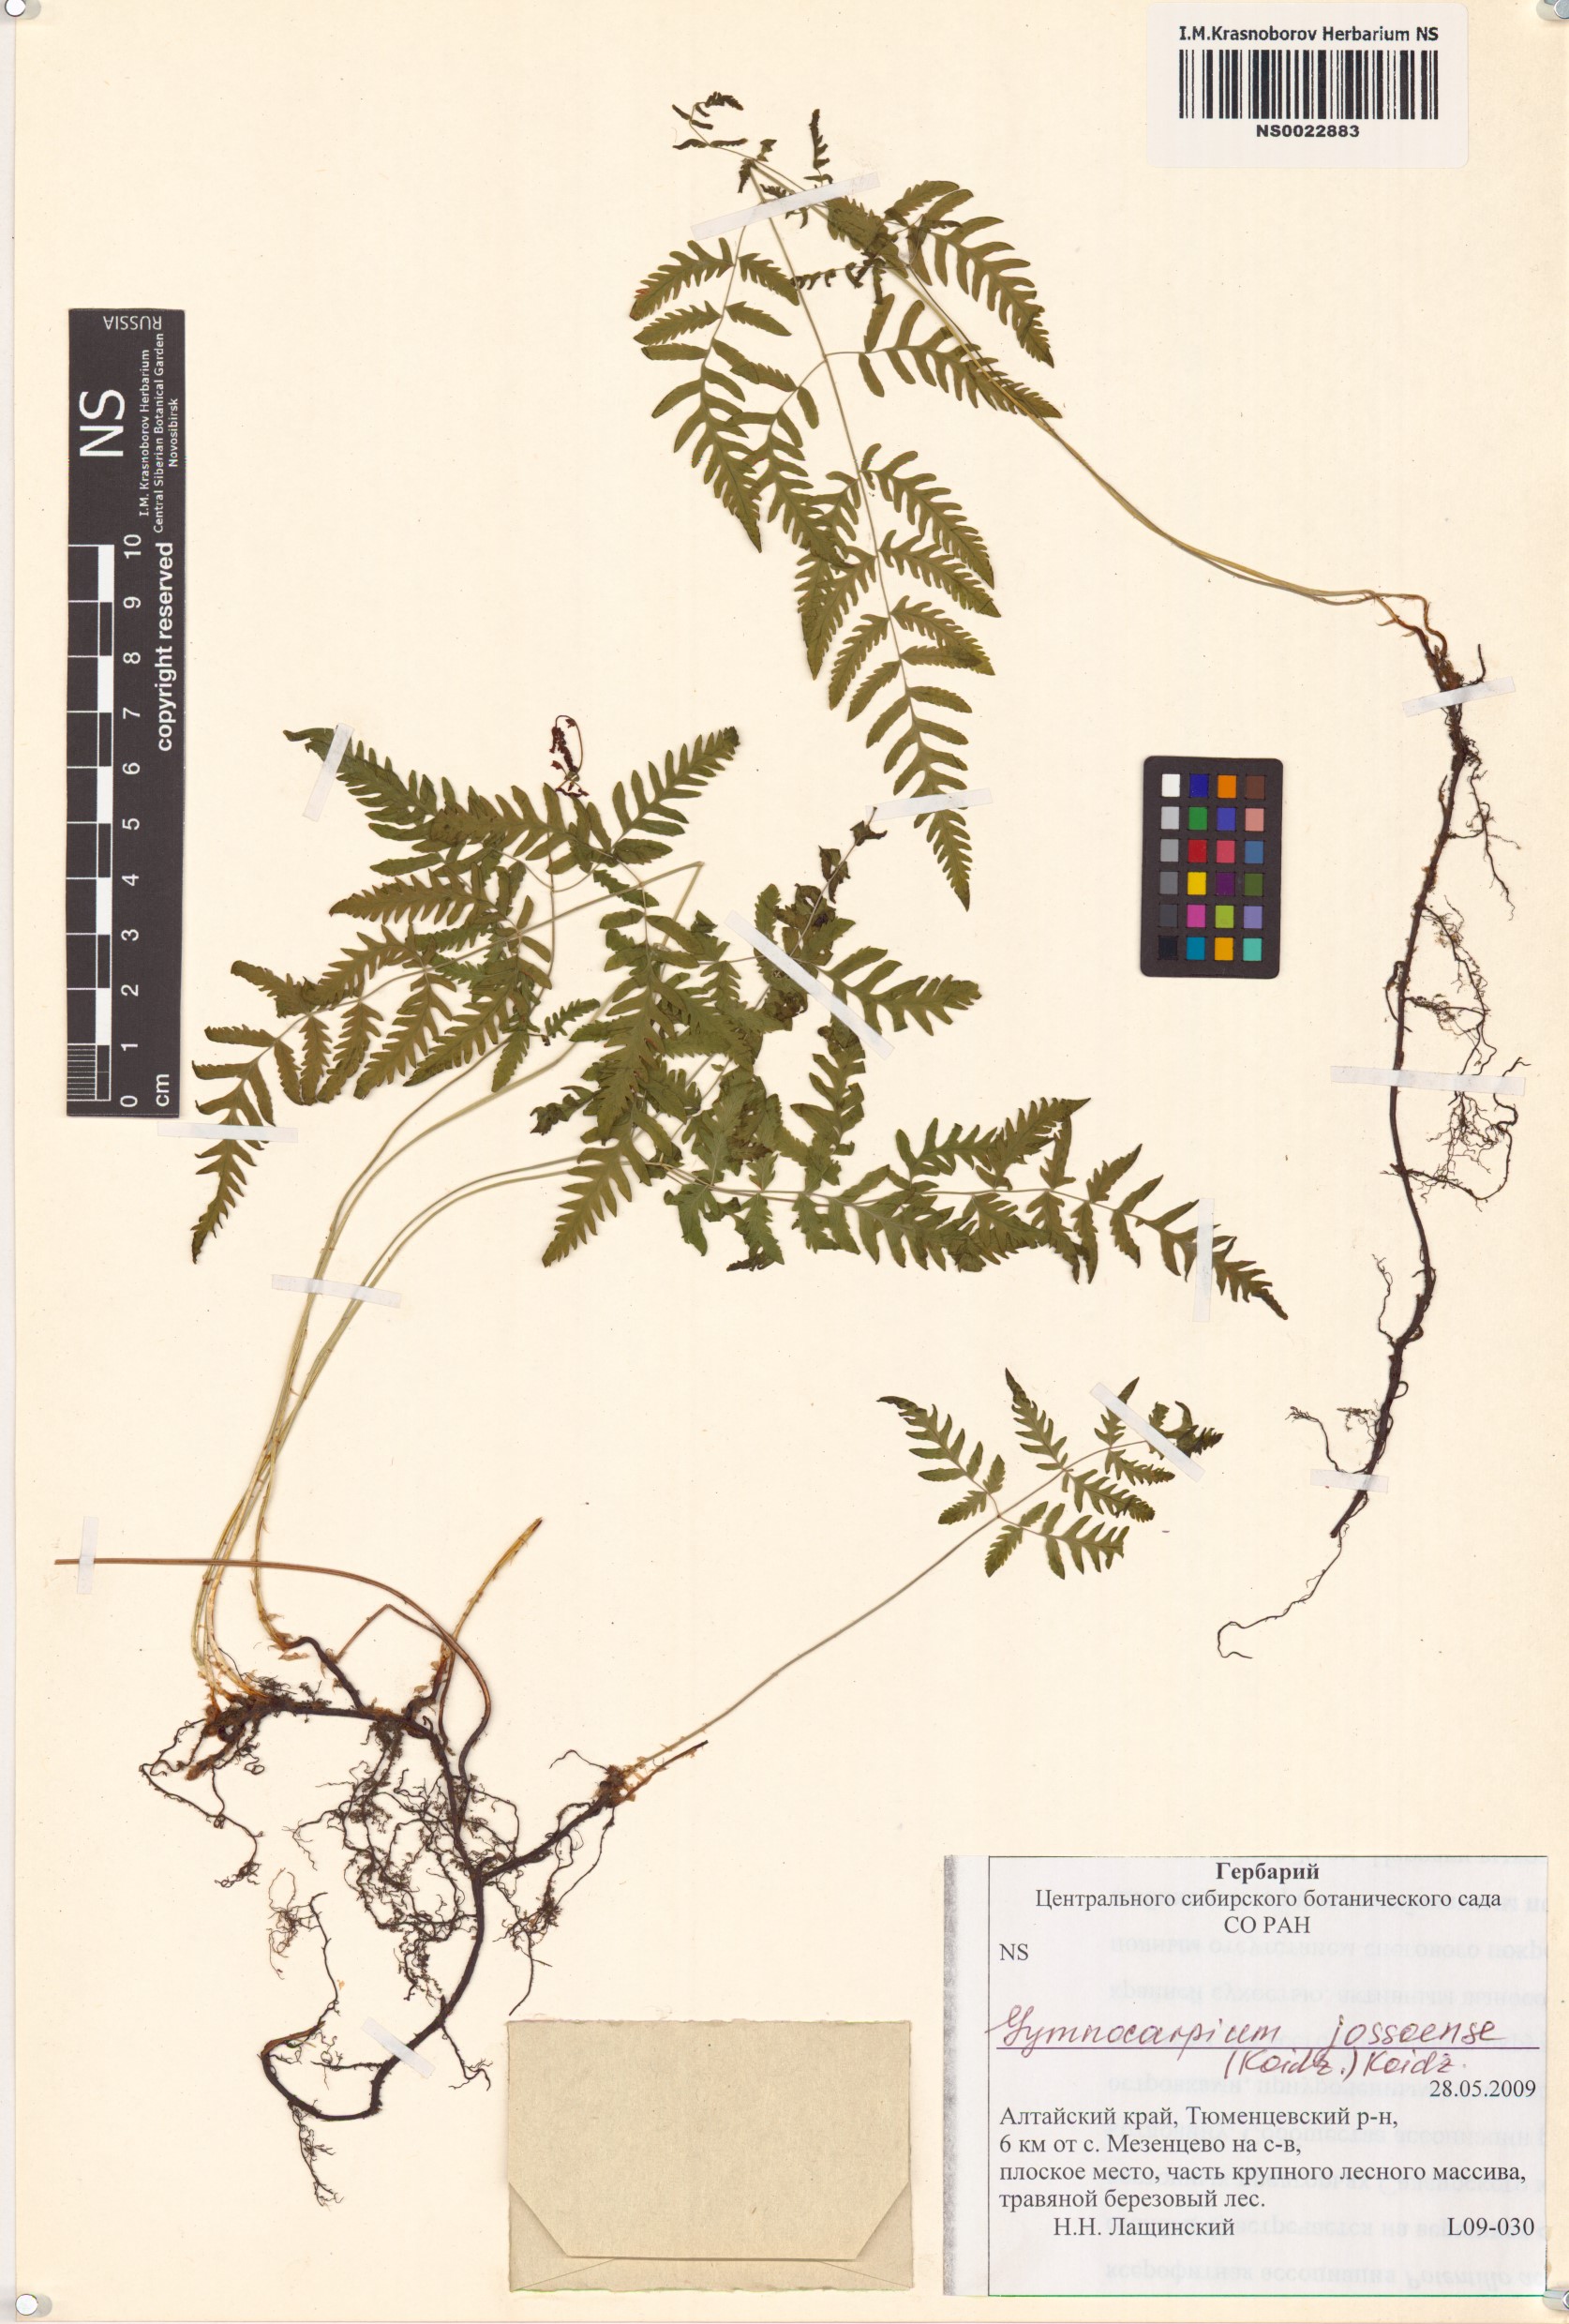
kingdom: Plantae
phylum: Tracheophyta
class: Polypodiopsida
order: Polypodiales
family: Cystopteridaceae
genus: Gymnocarpium
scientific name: Gymnocarpium jessoense
